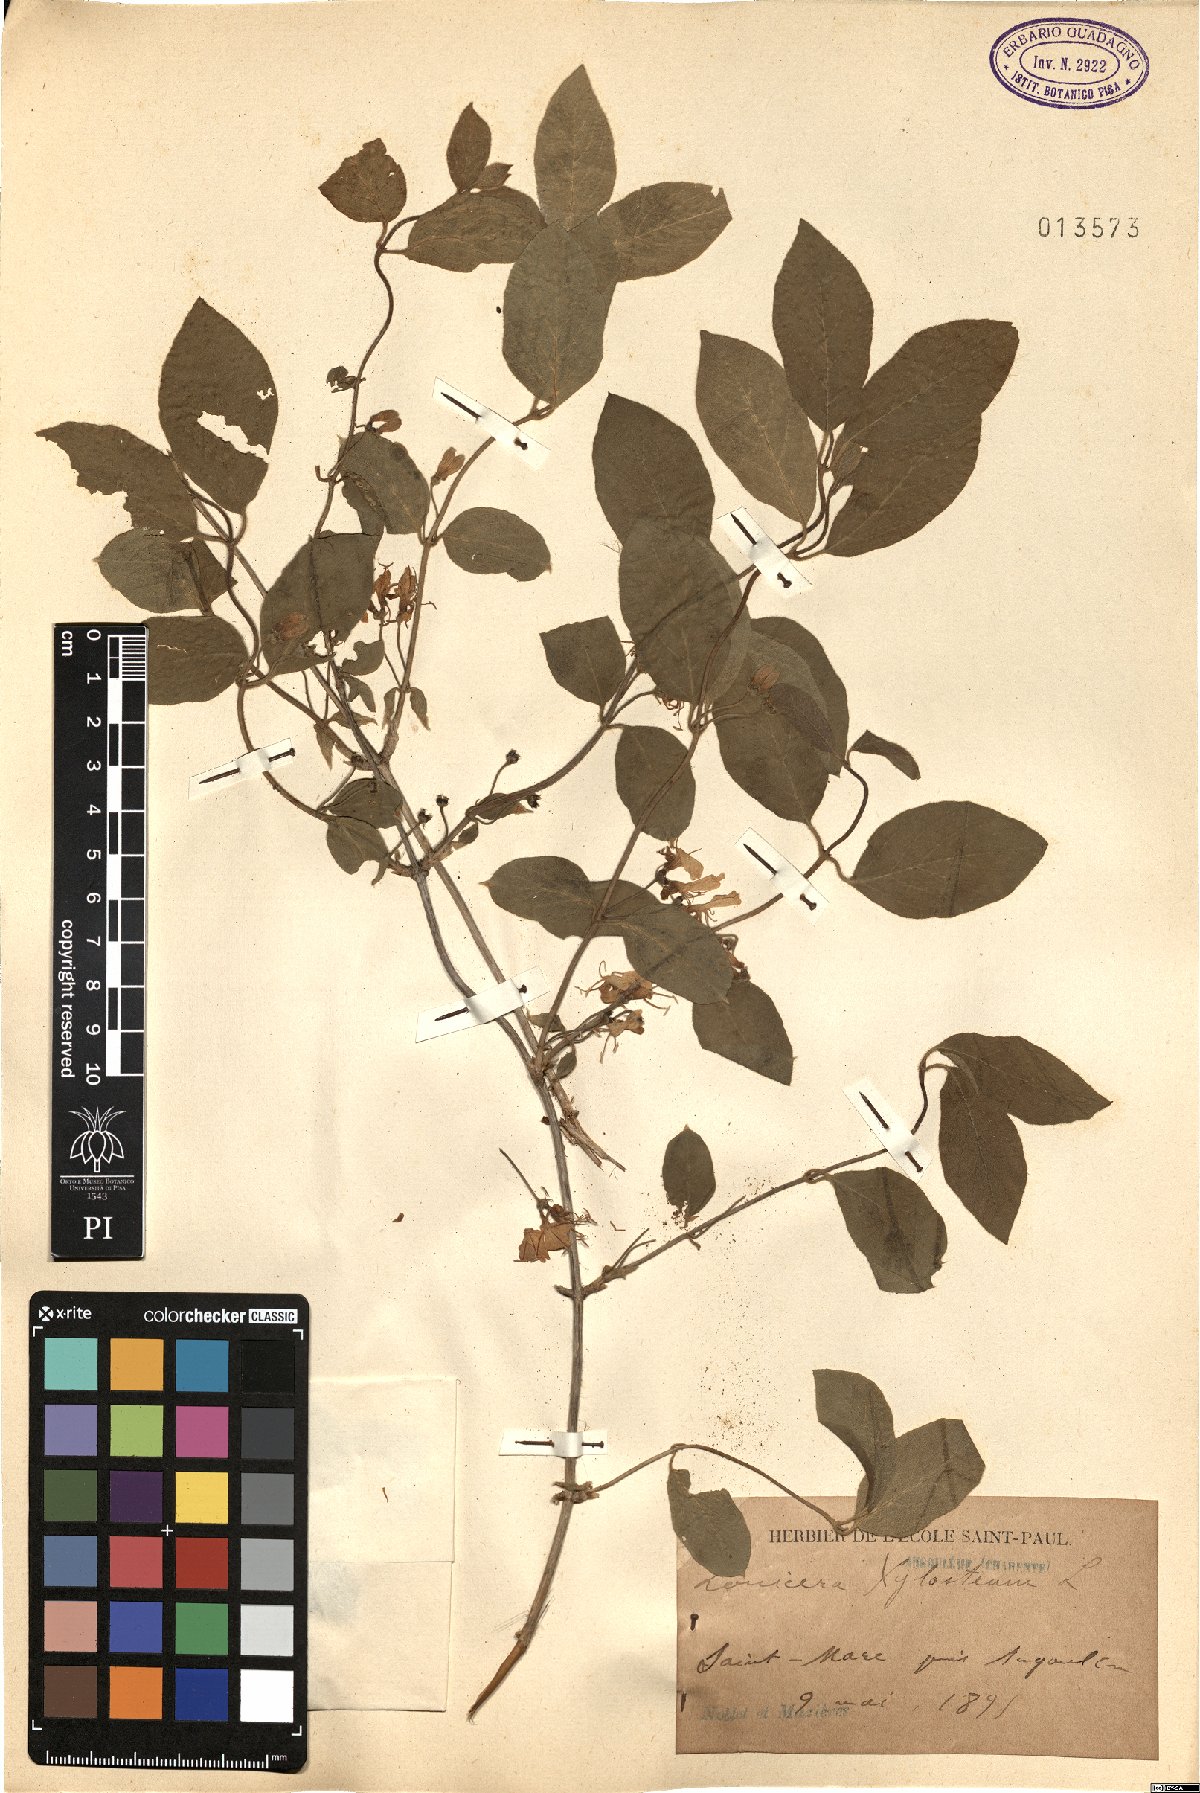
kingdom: Plantae
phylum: Tracheophyta
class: Magnoliopsida
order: Dipsacales
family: Caprifoliaceae
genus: Lonicera
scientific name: Lonicera xylosteum
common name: Fly honeysuckle
